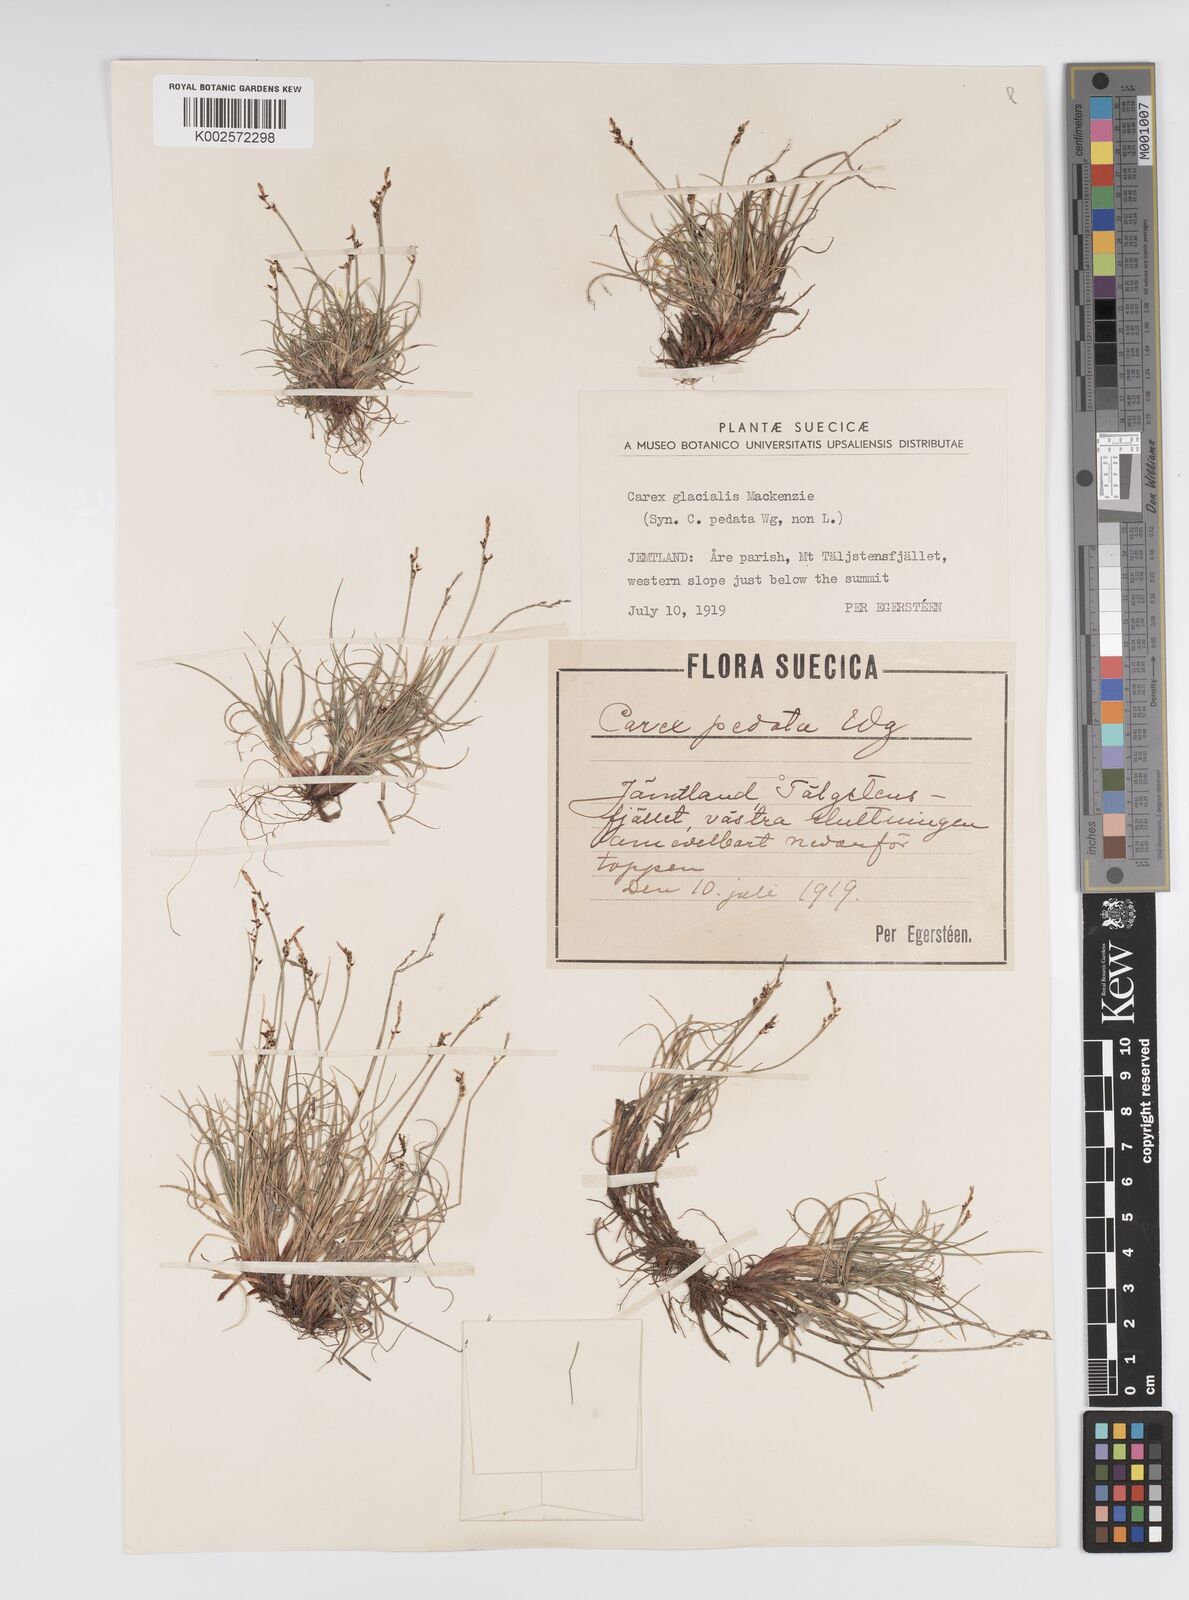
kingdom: Plantae
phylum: Tracheophyta
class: Liliopsida
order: Poales
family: Cyperaceae
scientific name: Cyperaceae
